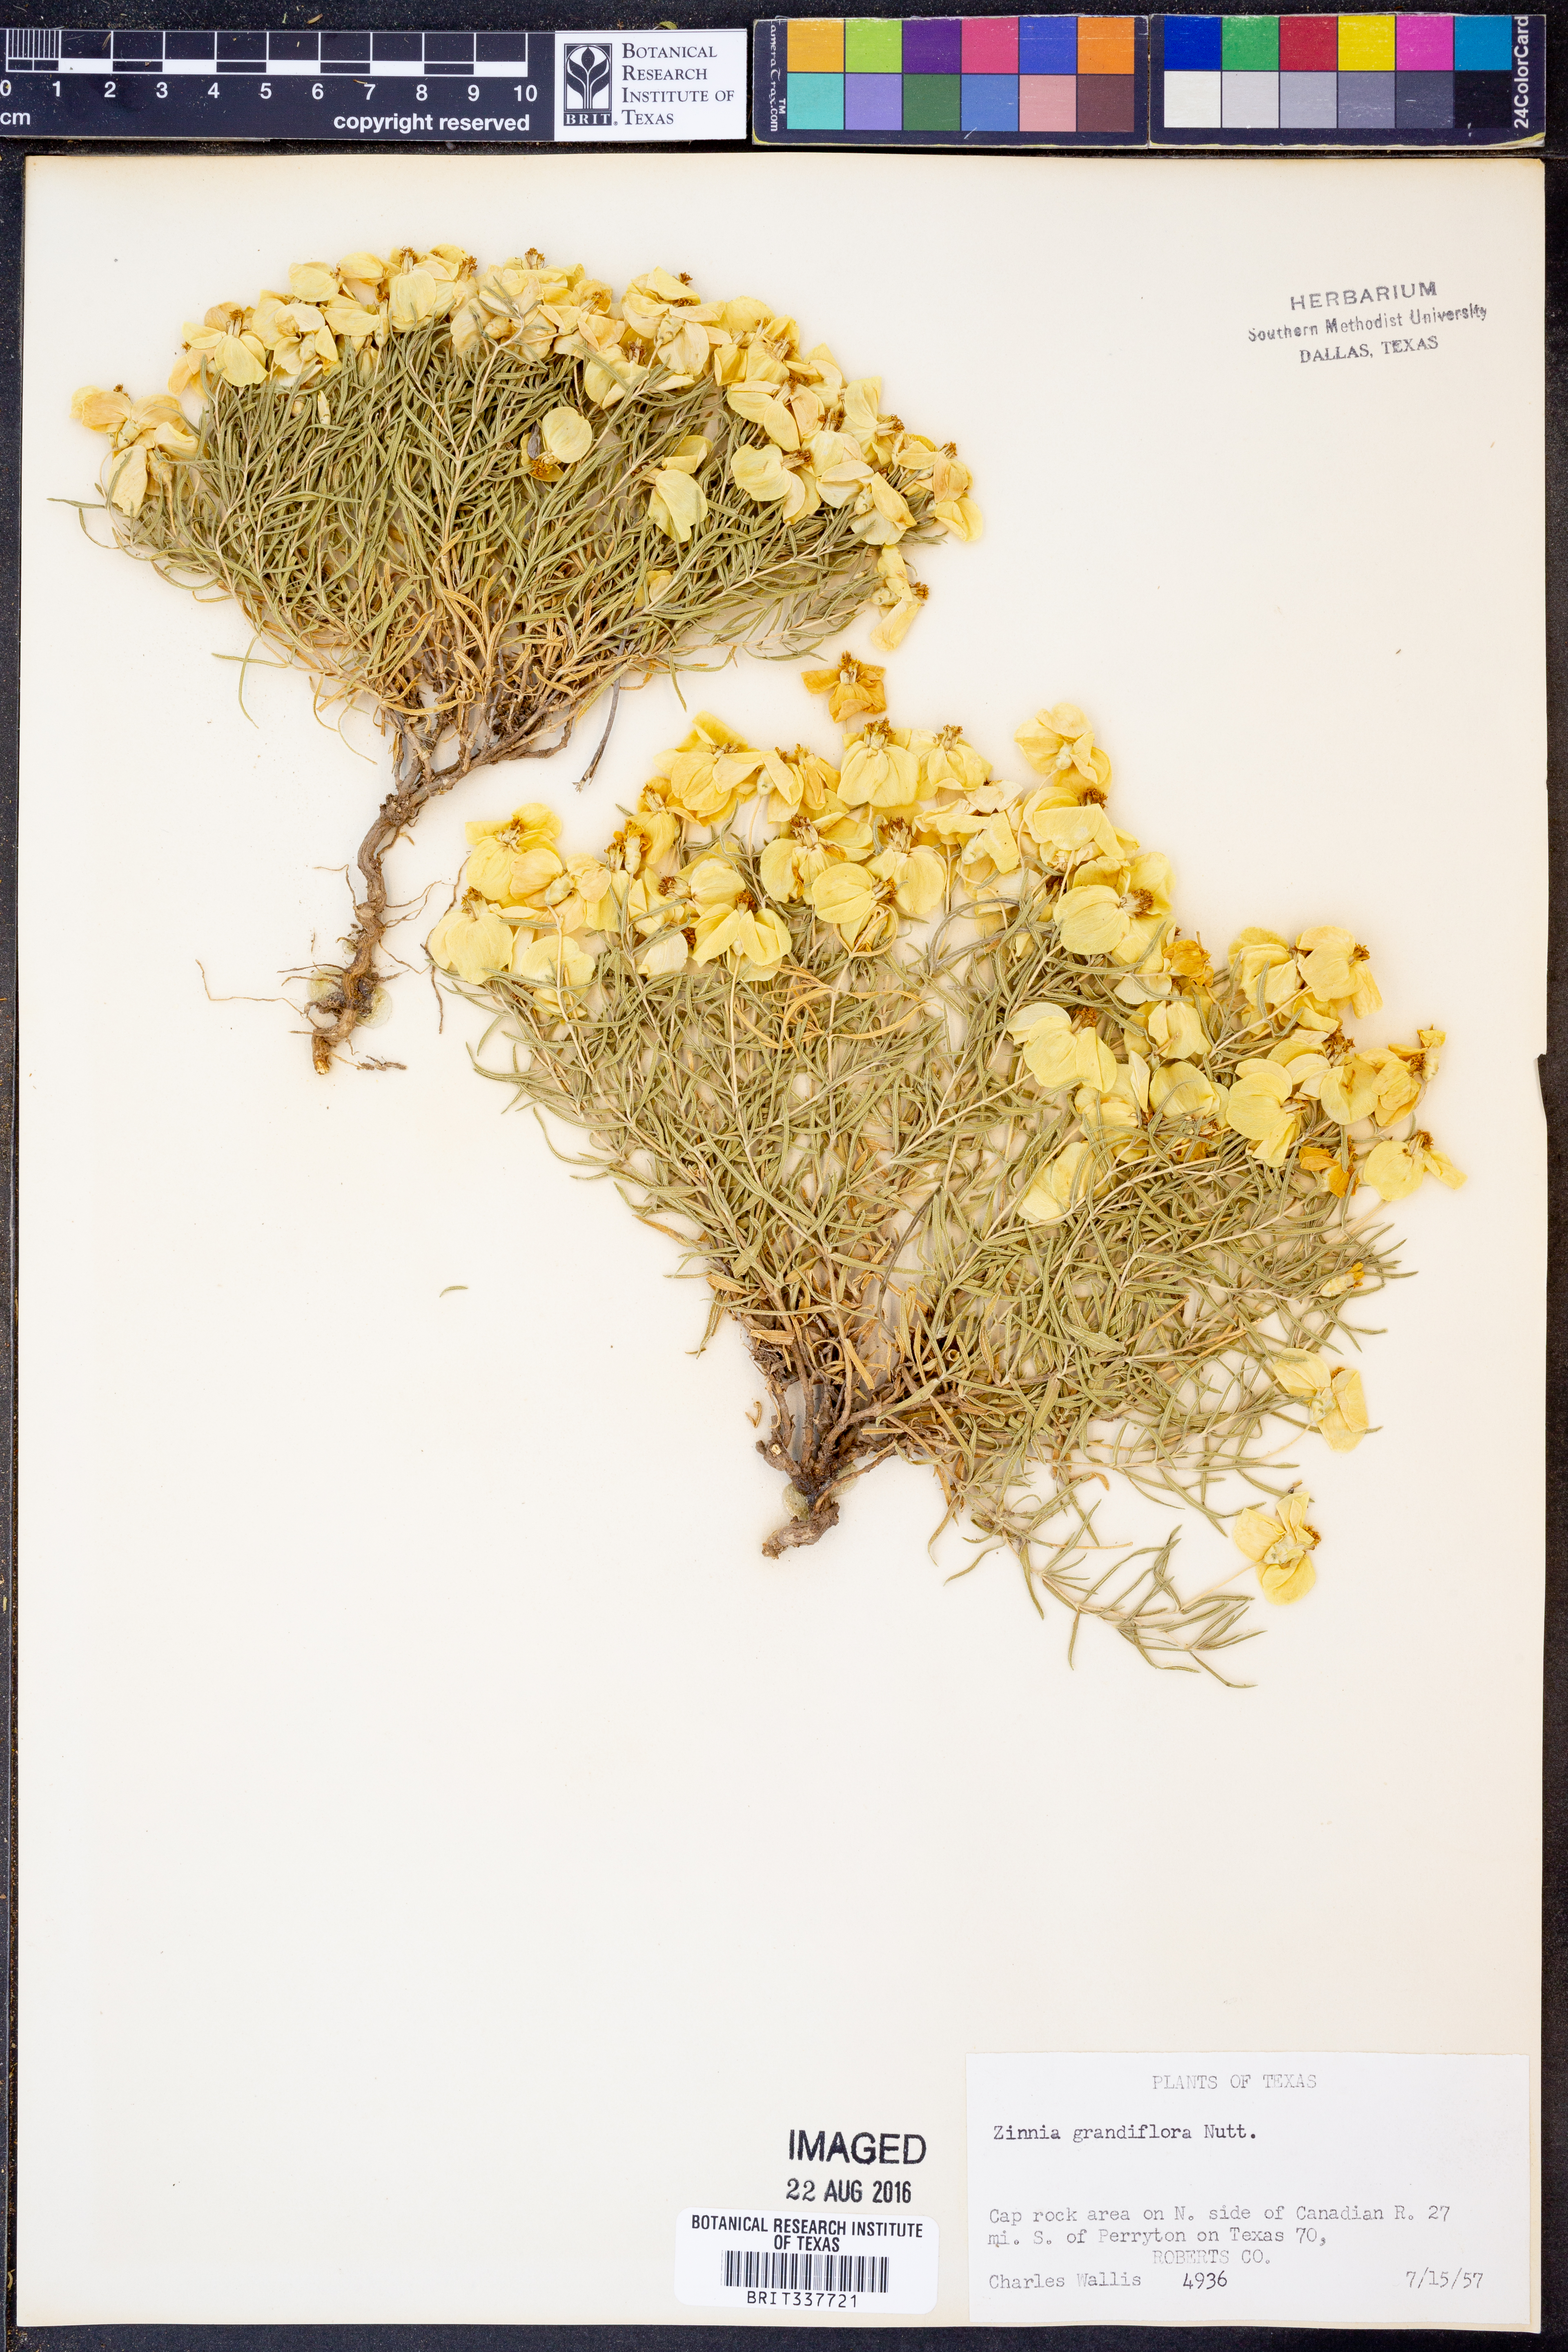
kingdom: Plantae
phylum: Tracheophyta
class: Magnoliopsida
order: Asterales
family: Asteraceae
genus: Zinnia
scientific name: Zinnia grandiflora
